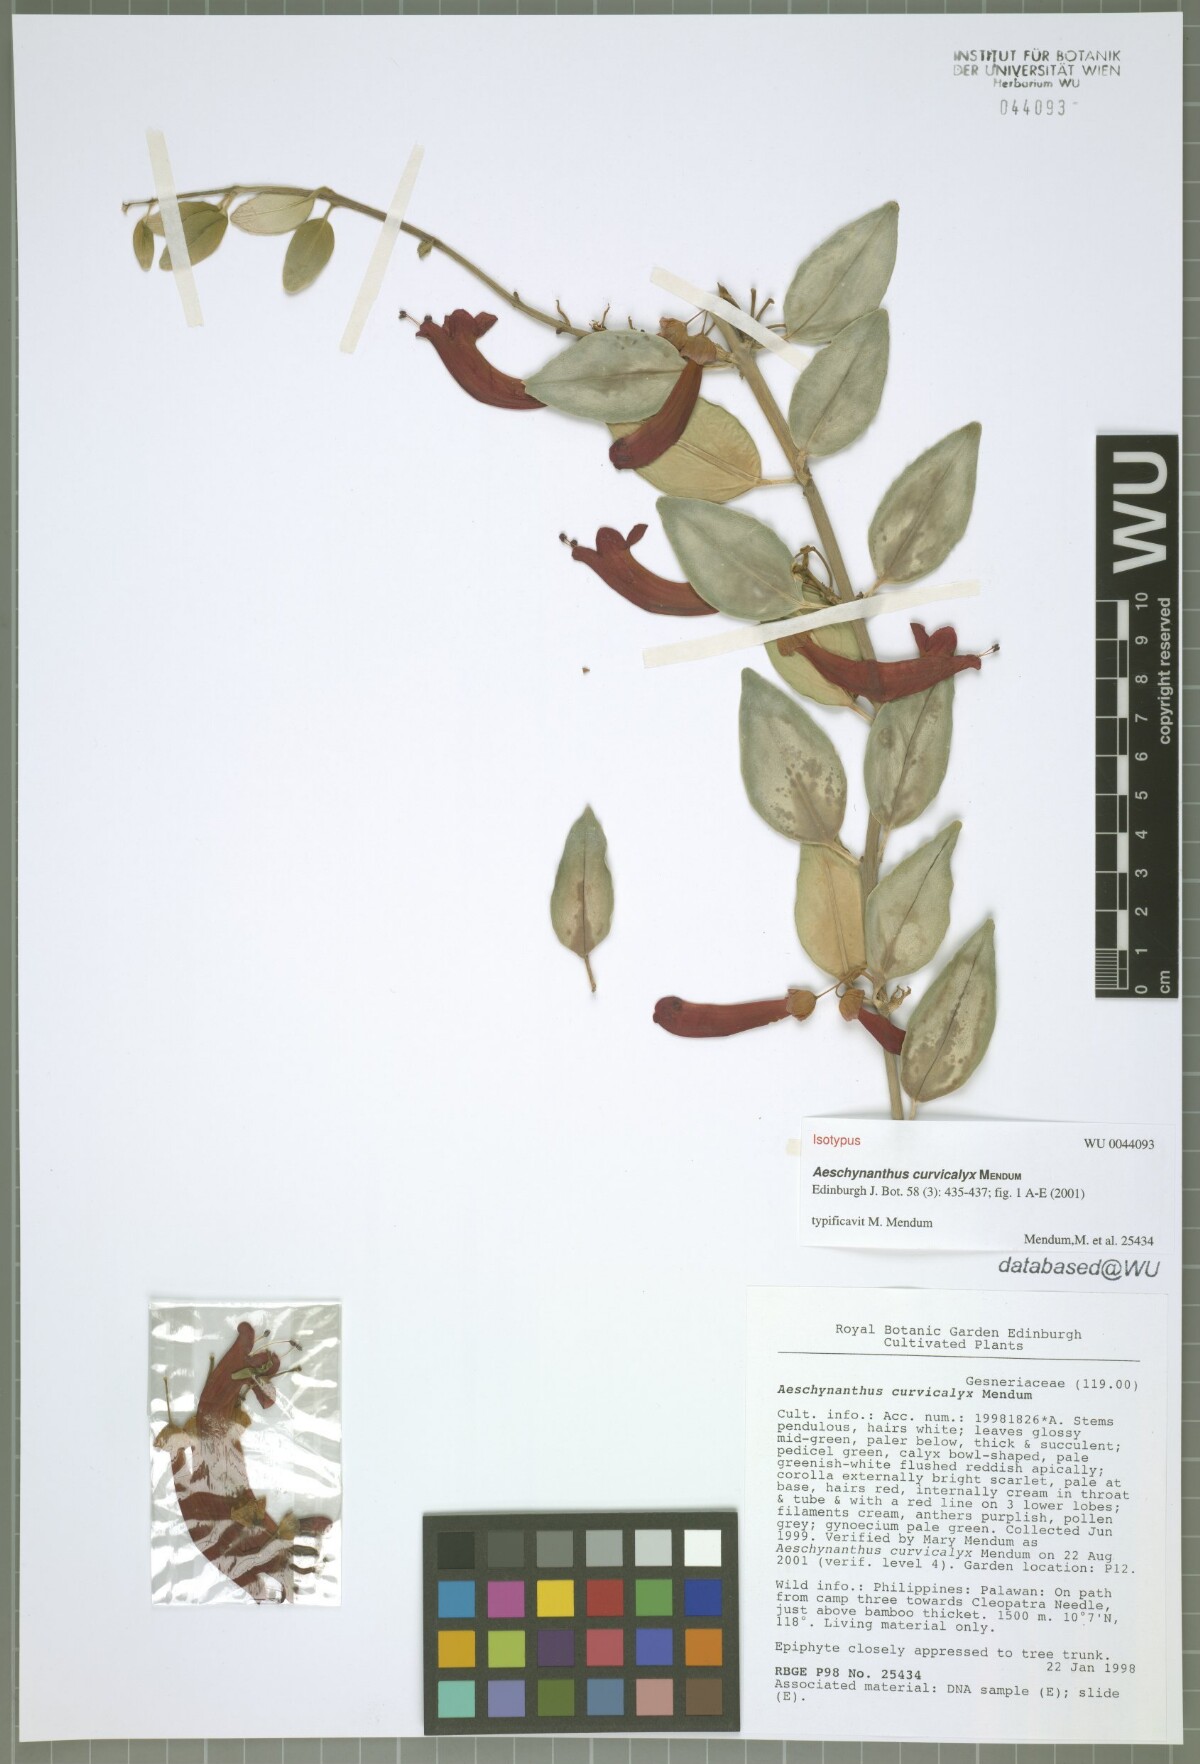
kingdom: Plantae
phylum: Tracheophyta
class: Magnoliopsida
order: Lamiales
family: Gesneriaceae
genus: Aeschynanthus
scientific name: Aeschynanthus curvicalyx
